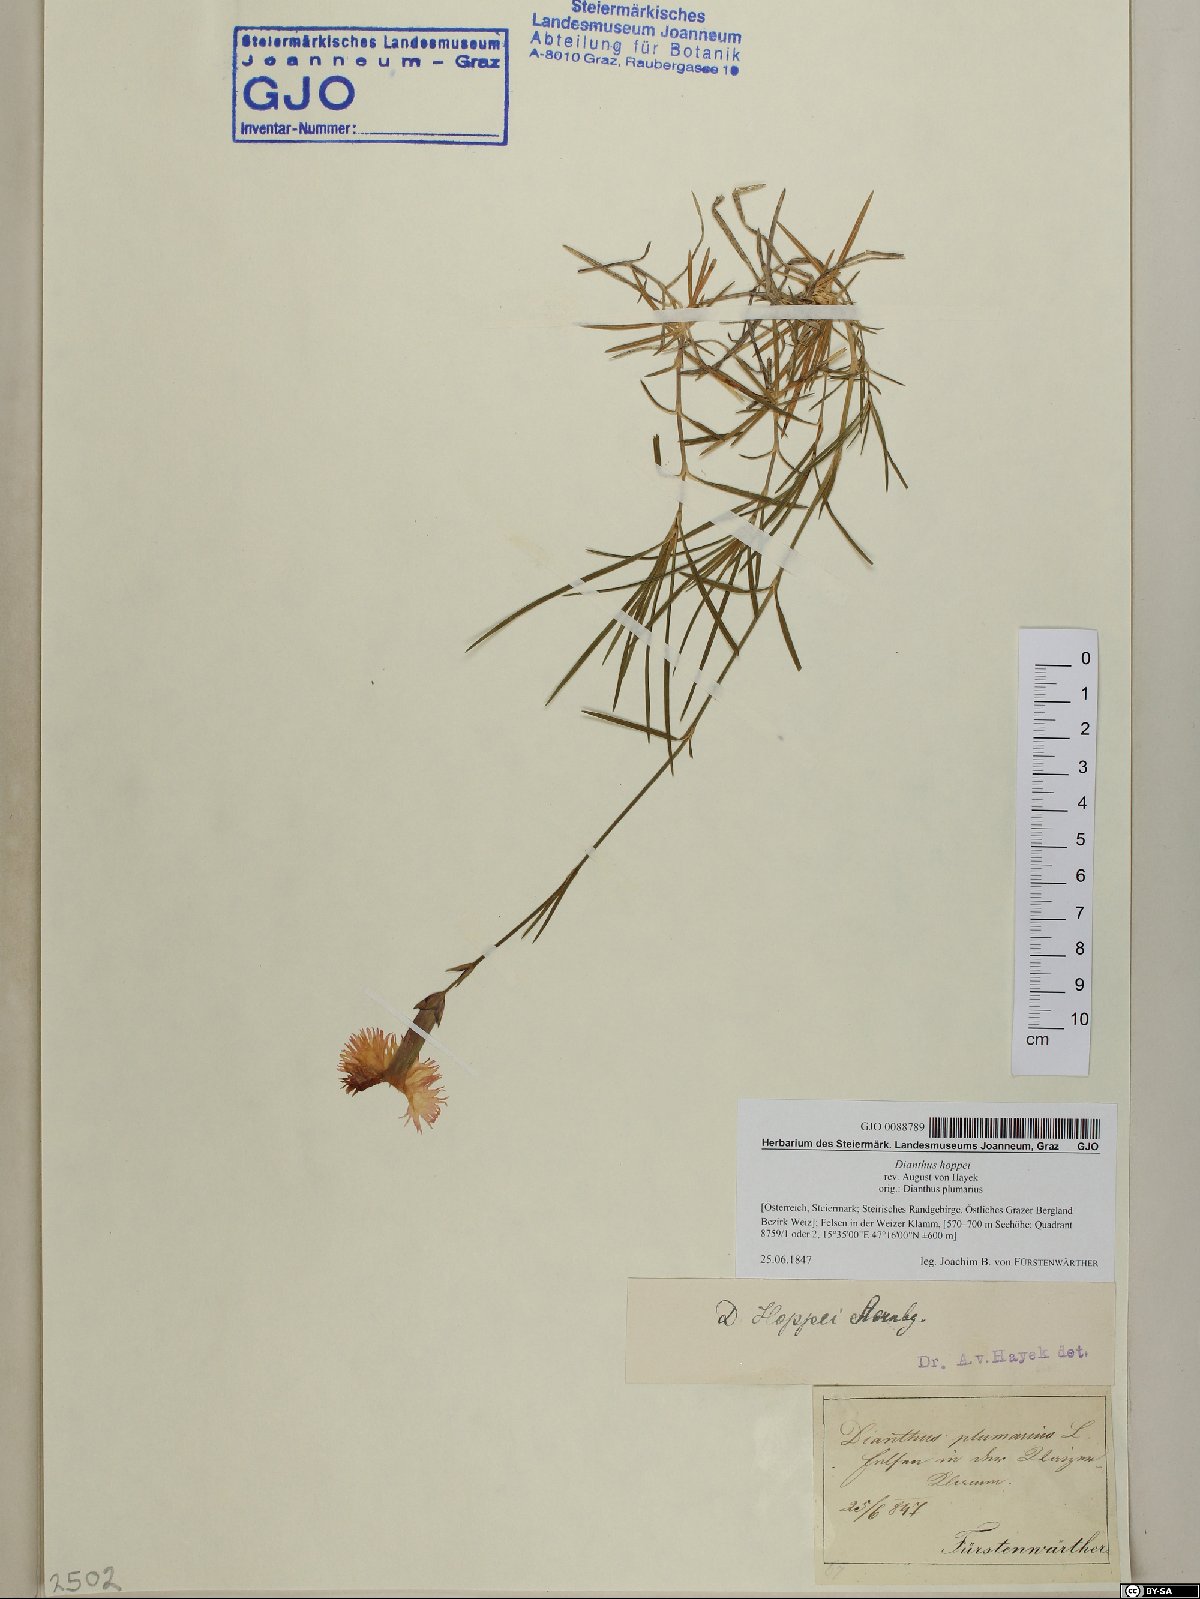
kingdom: Plantae
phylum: Tracheophyta
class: Magnoliopsida
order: Caryophyllales
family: Caryophyllaceae
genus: Dianthus
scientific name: Dianthus plumarius
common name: Pink
